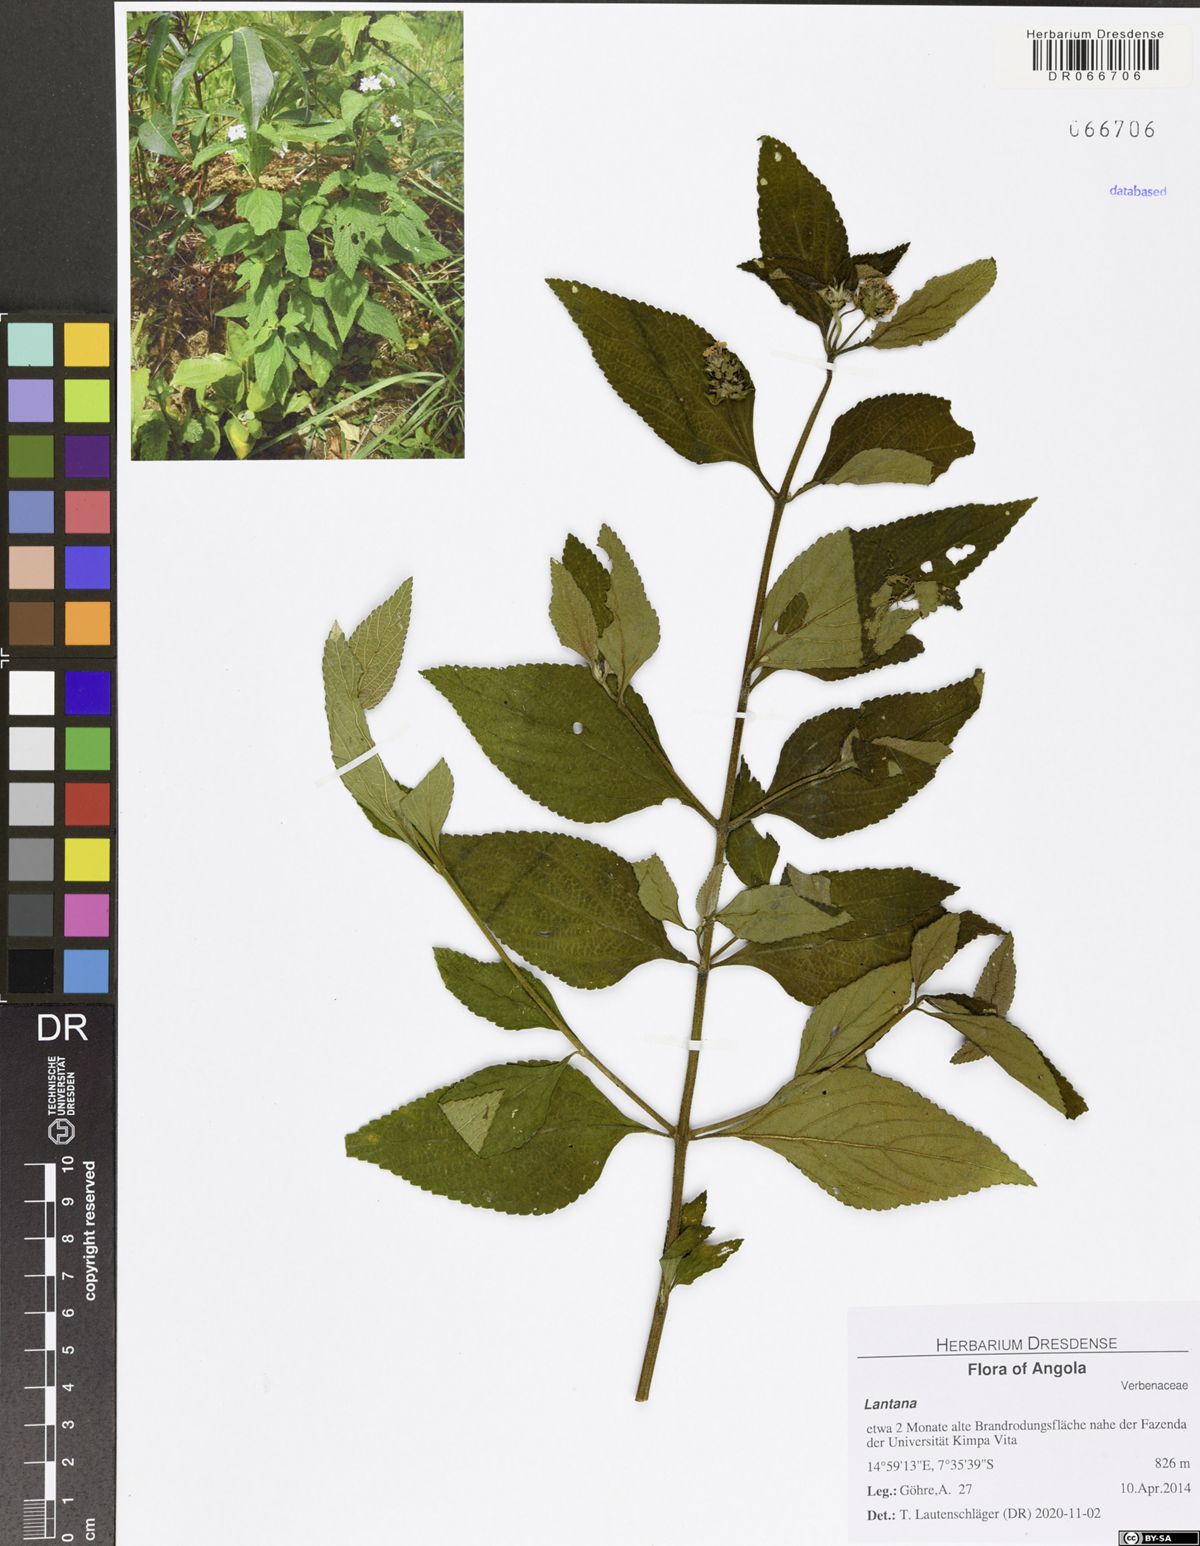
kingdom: Plantae
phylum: Tracheophyta
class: Magnoliopsida
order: Lamiales
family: Verbenaceae
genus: Lantana
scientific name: Lantana viburnoides
